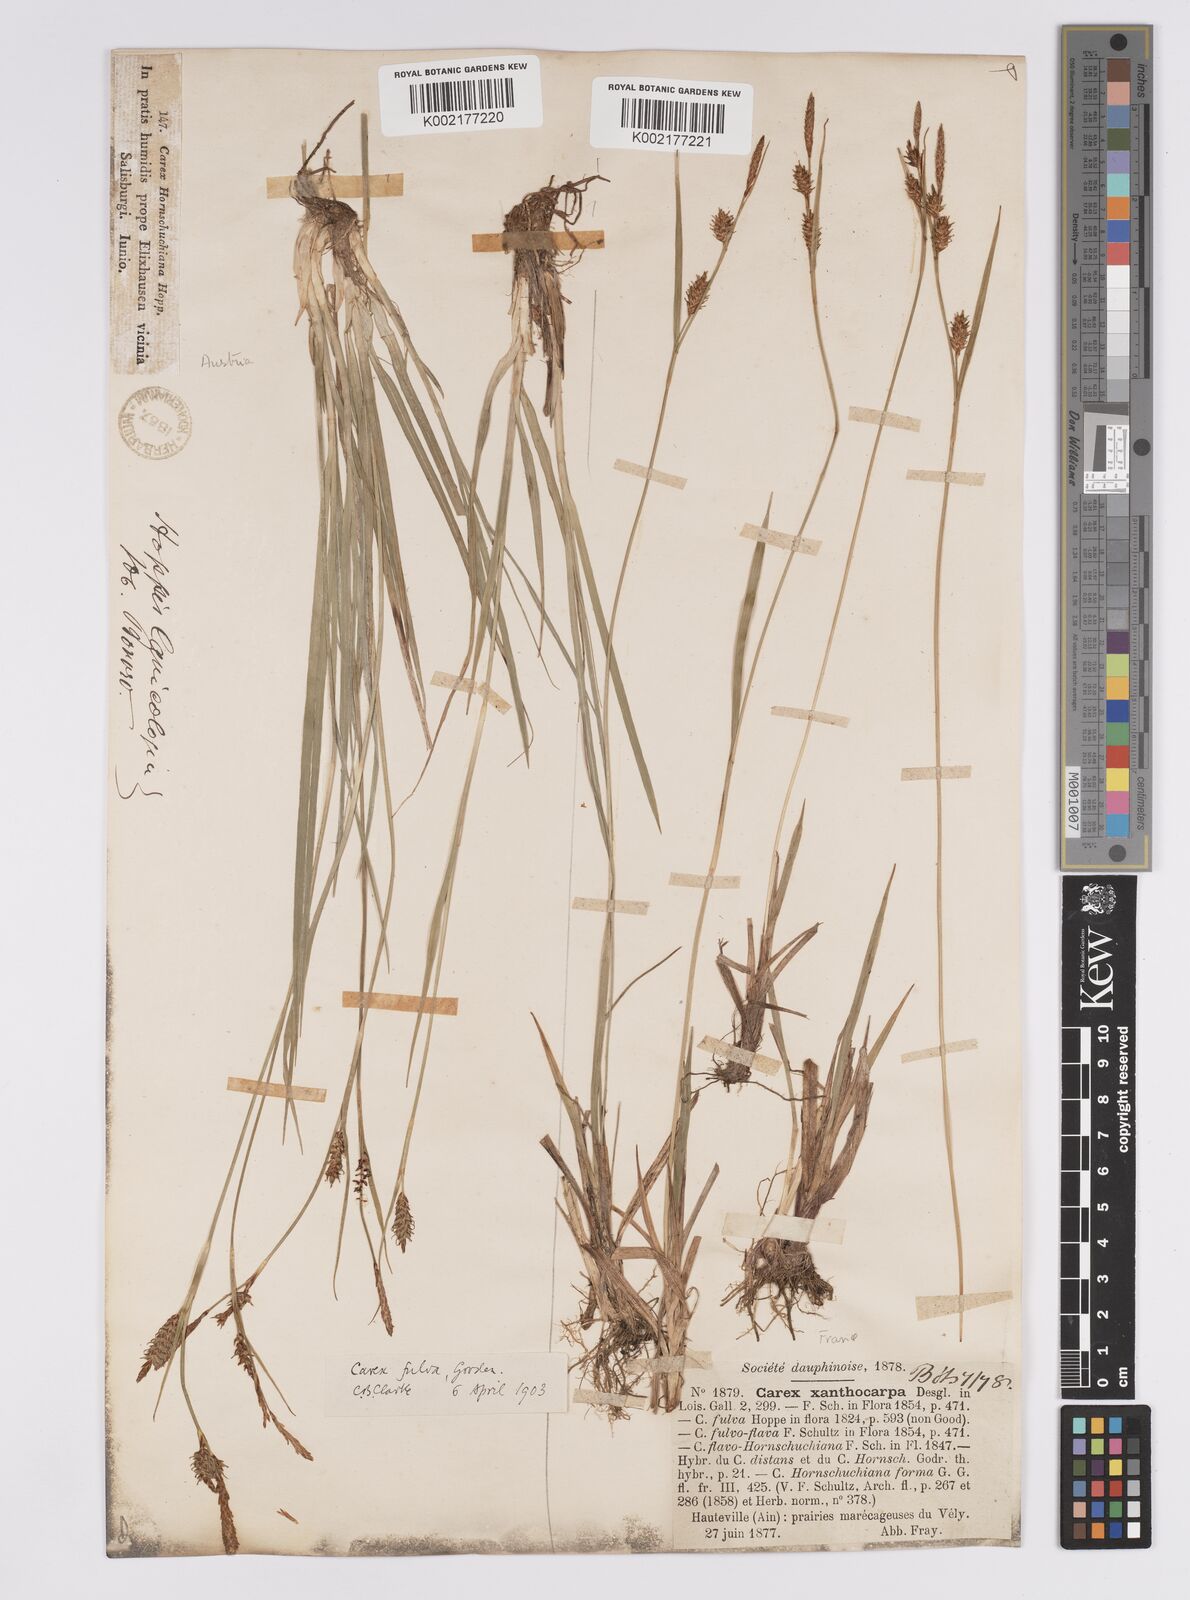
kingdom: Plantae
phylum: Tracheophyta
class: Liliopsida
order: Poales
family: Cyperaceae
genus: Carex
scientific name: Carex hostiana
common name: Tawny sedge
